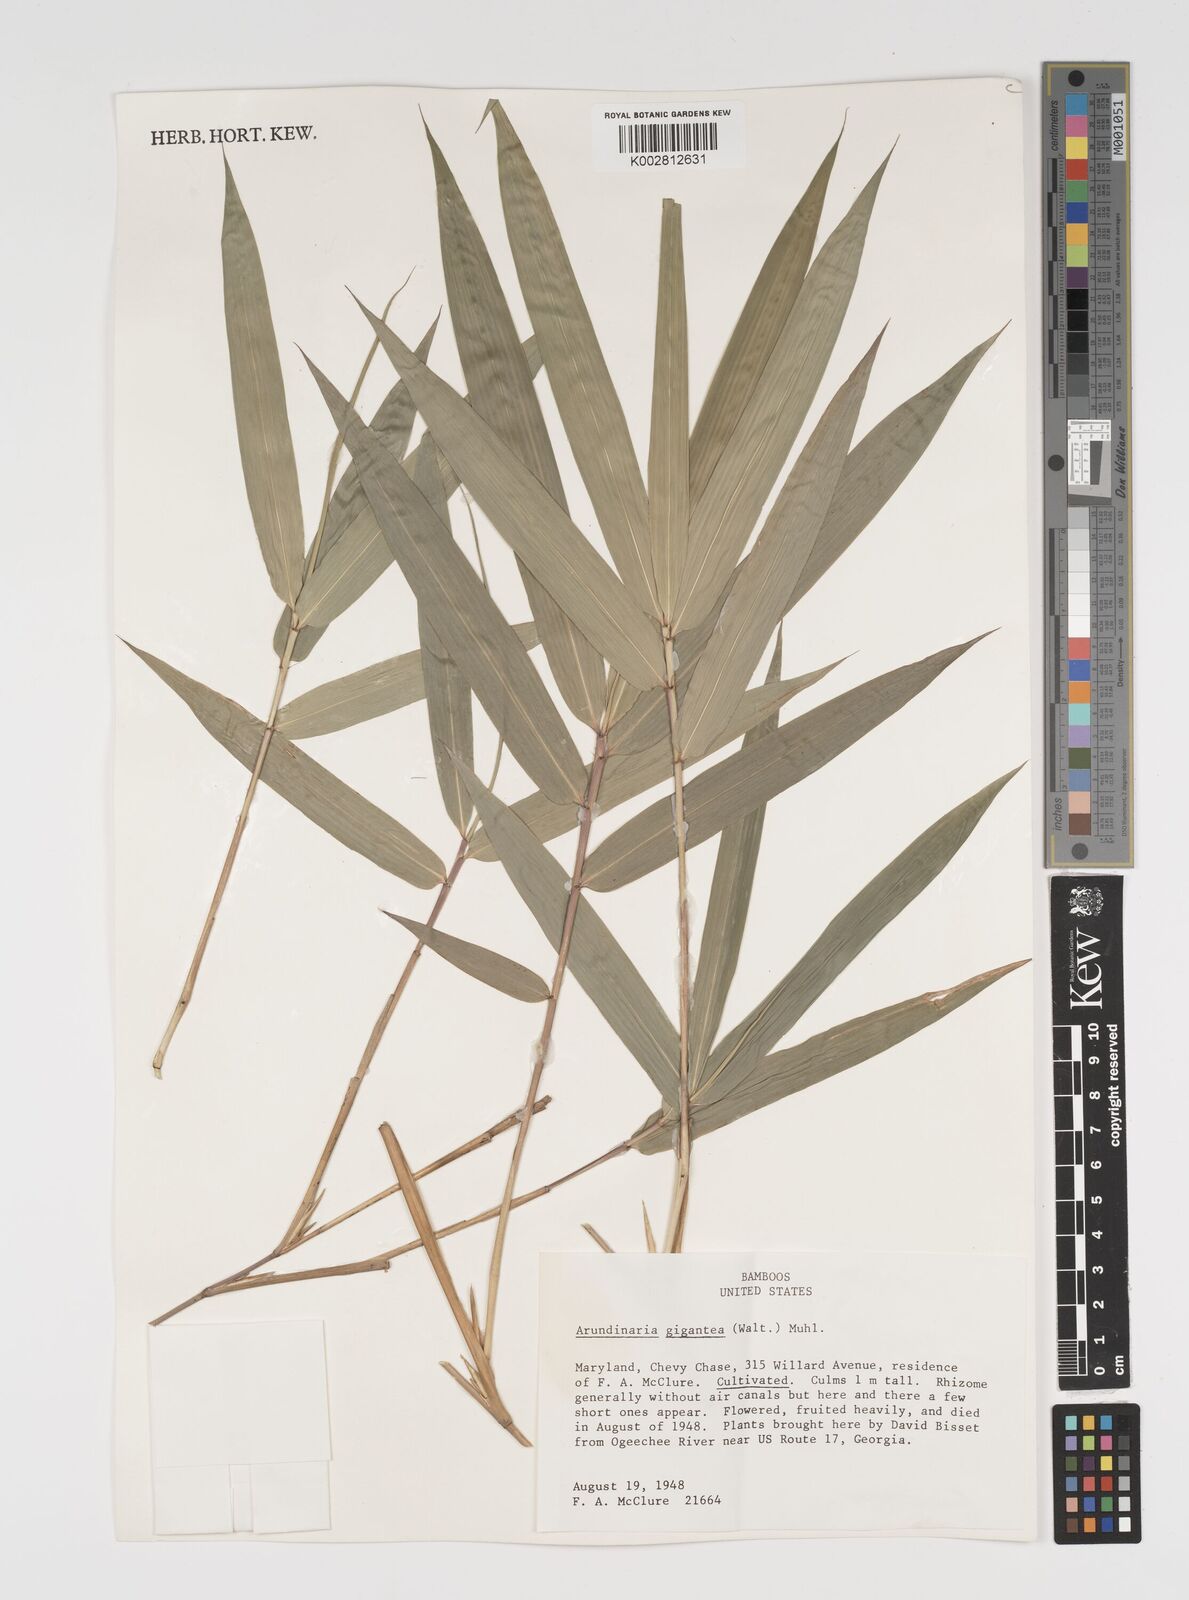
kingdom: Plantae
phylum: Tracheophyta
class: Liliopsida
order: Poales
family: Poaceae
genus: Arundinaria
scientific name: Arundinaria
